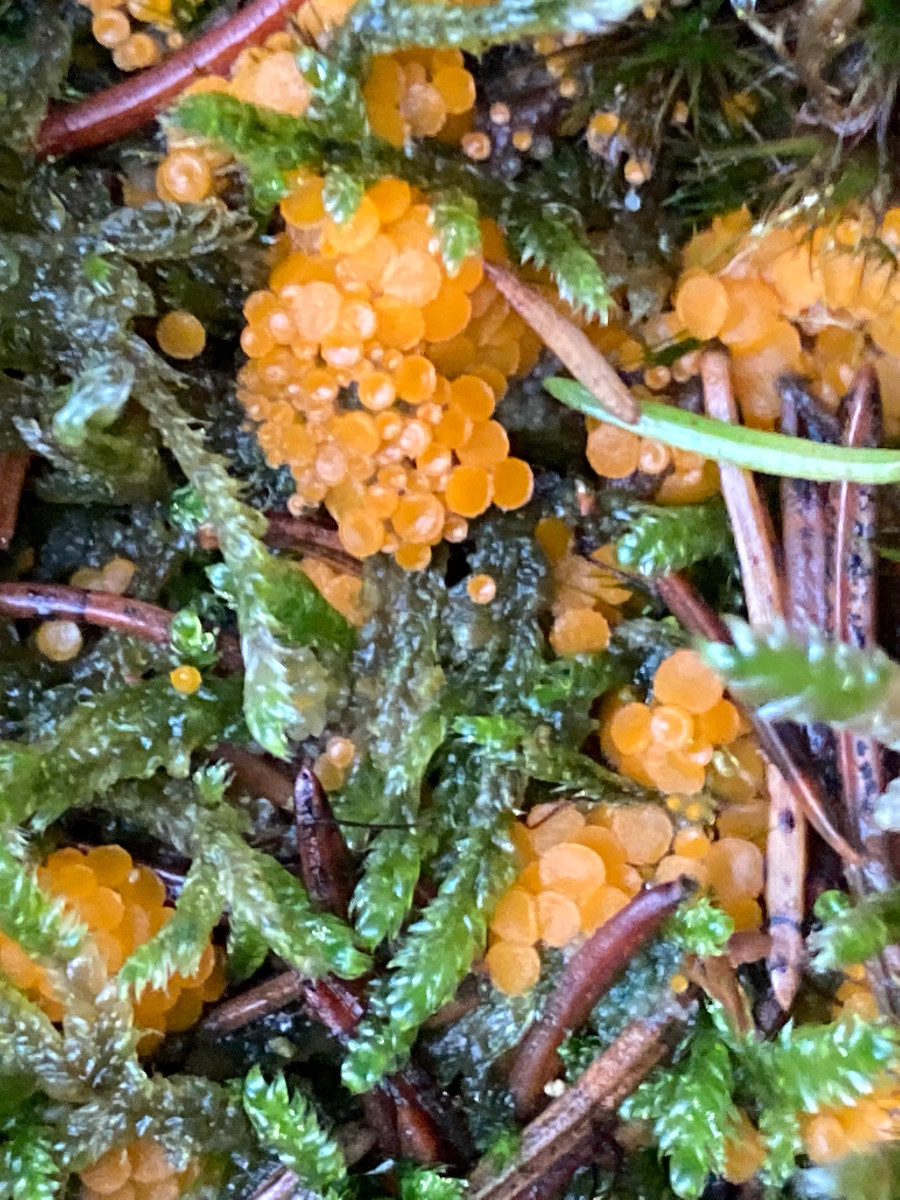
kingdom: Fungi
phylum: Ascomycota
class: Pezizomycetes
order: Pezizales
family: Pyronemataceae
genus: Byssonectria
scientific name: Byssonectria terrestris
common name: hjortebæger
